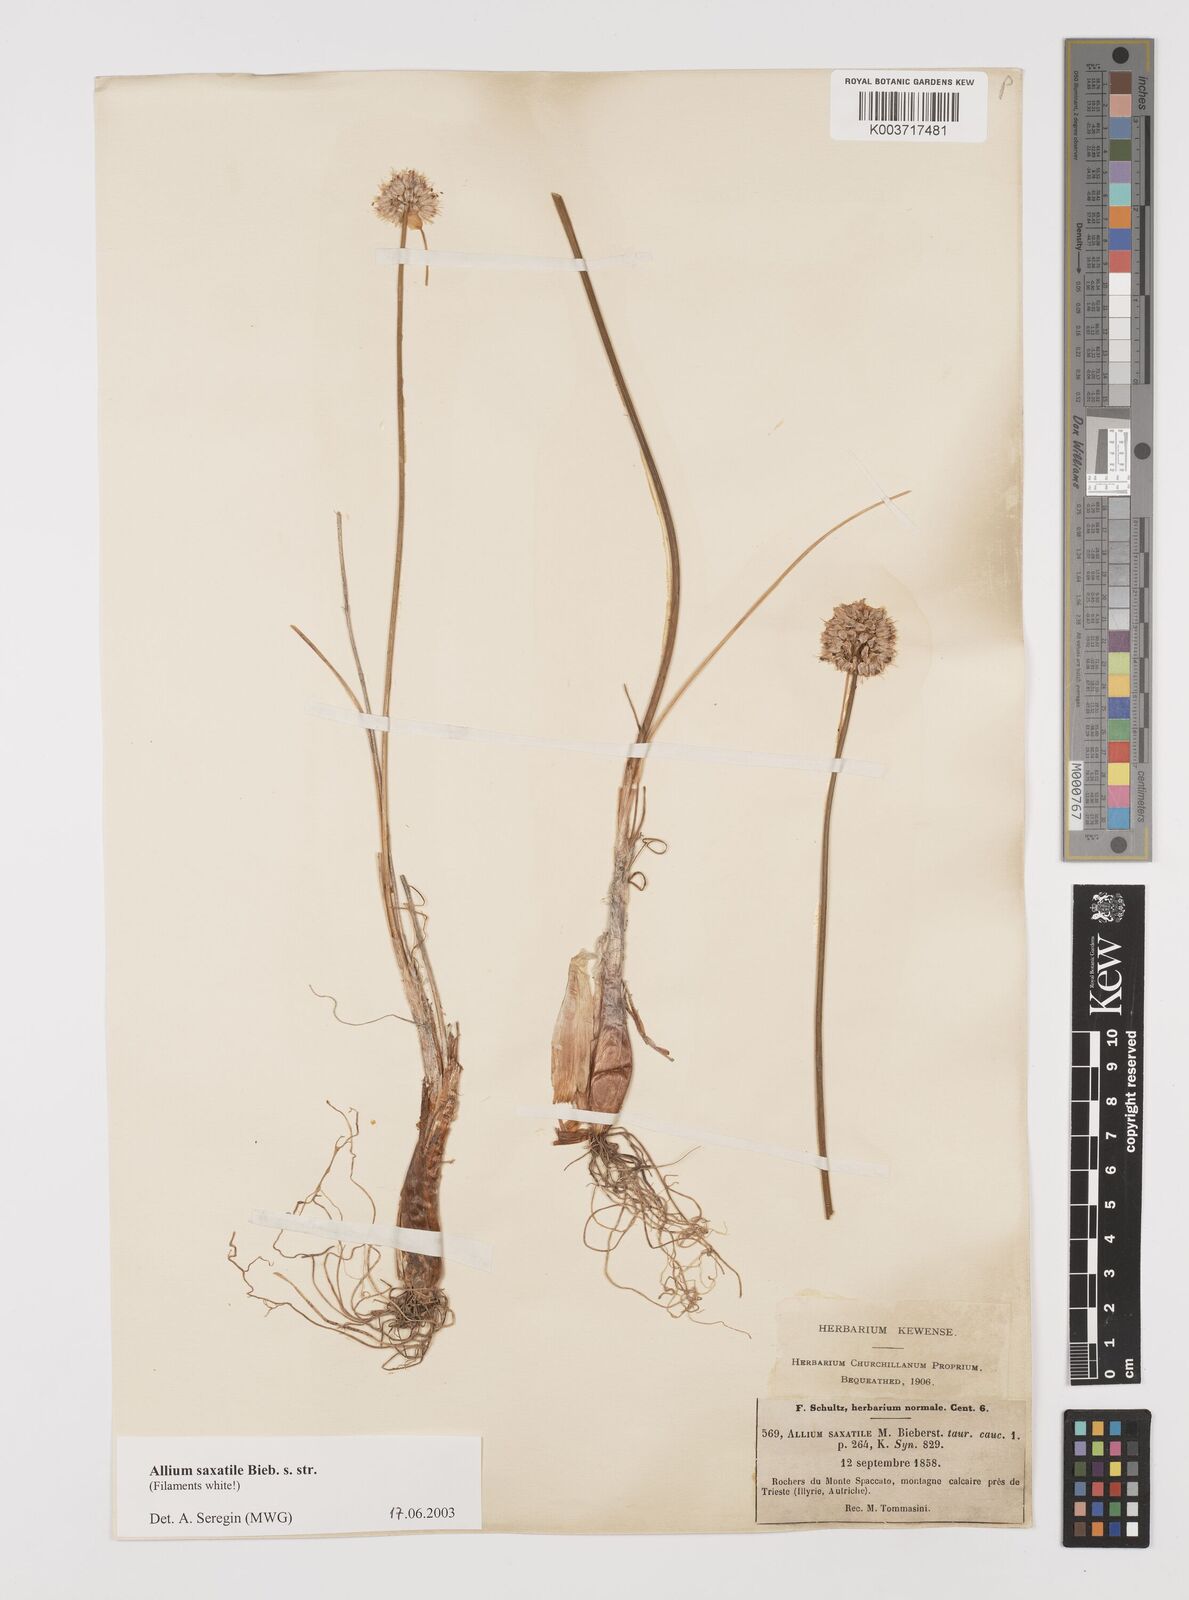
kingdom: Plantae
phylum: Tracheophyta
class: Liliopsida
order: Asparagales
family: Amaryllidaceae
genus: Allium
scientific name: Allium saxatile
